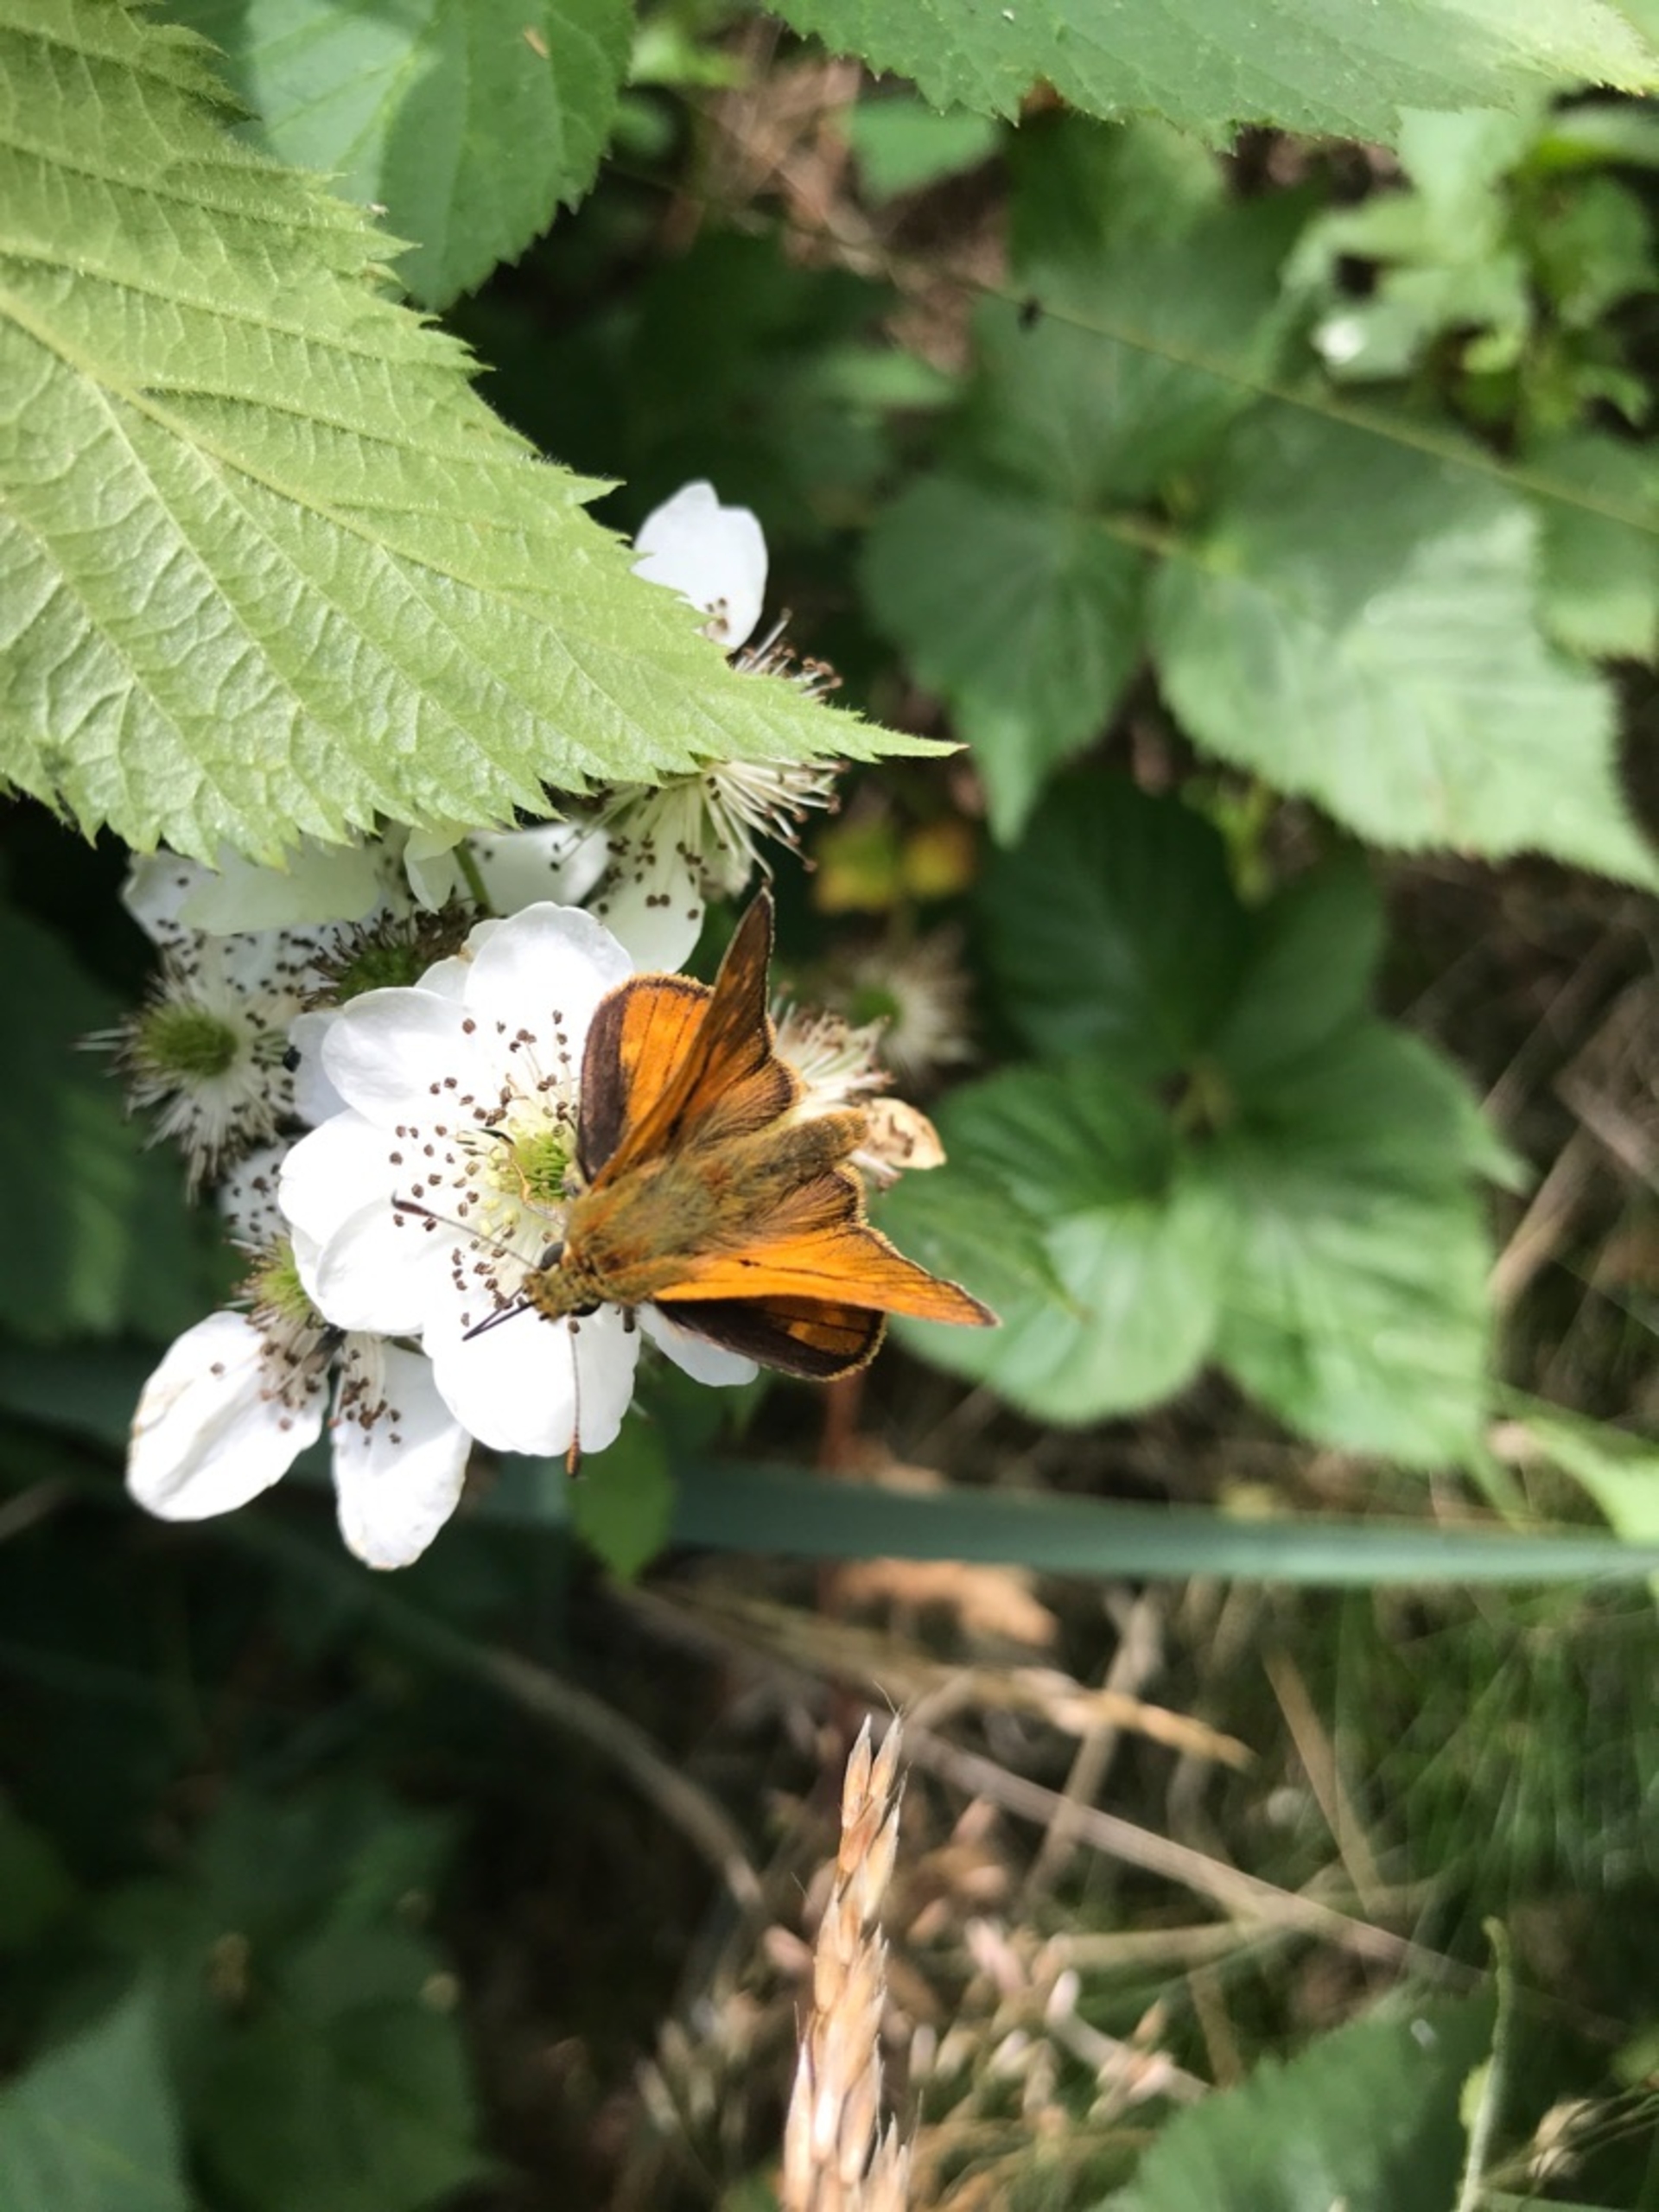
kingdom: Animalia
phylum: Arthropoda
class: Insecta
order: Lepidoptera
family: Hesperiidae
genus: Ochlodes
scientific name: Ochlodes venata
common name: Stor bredpande
